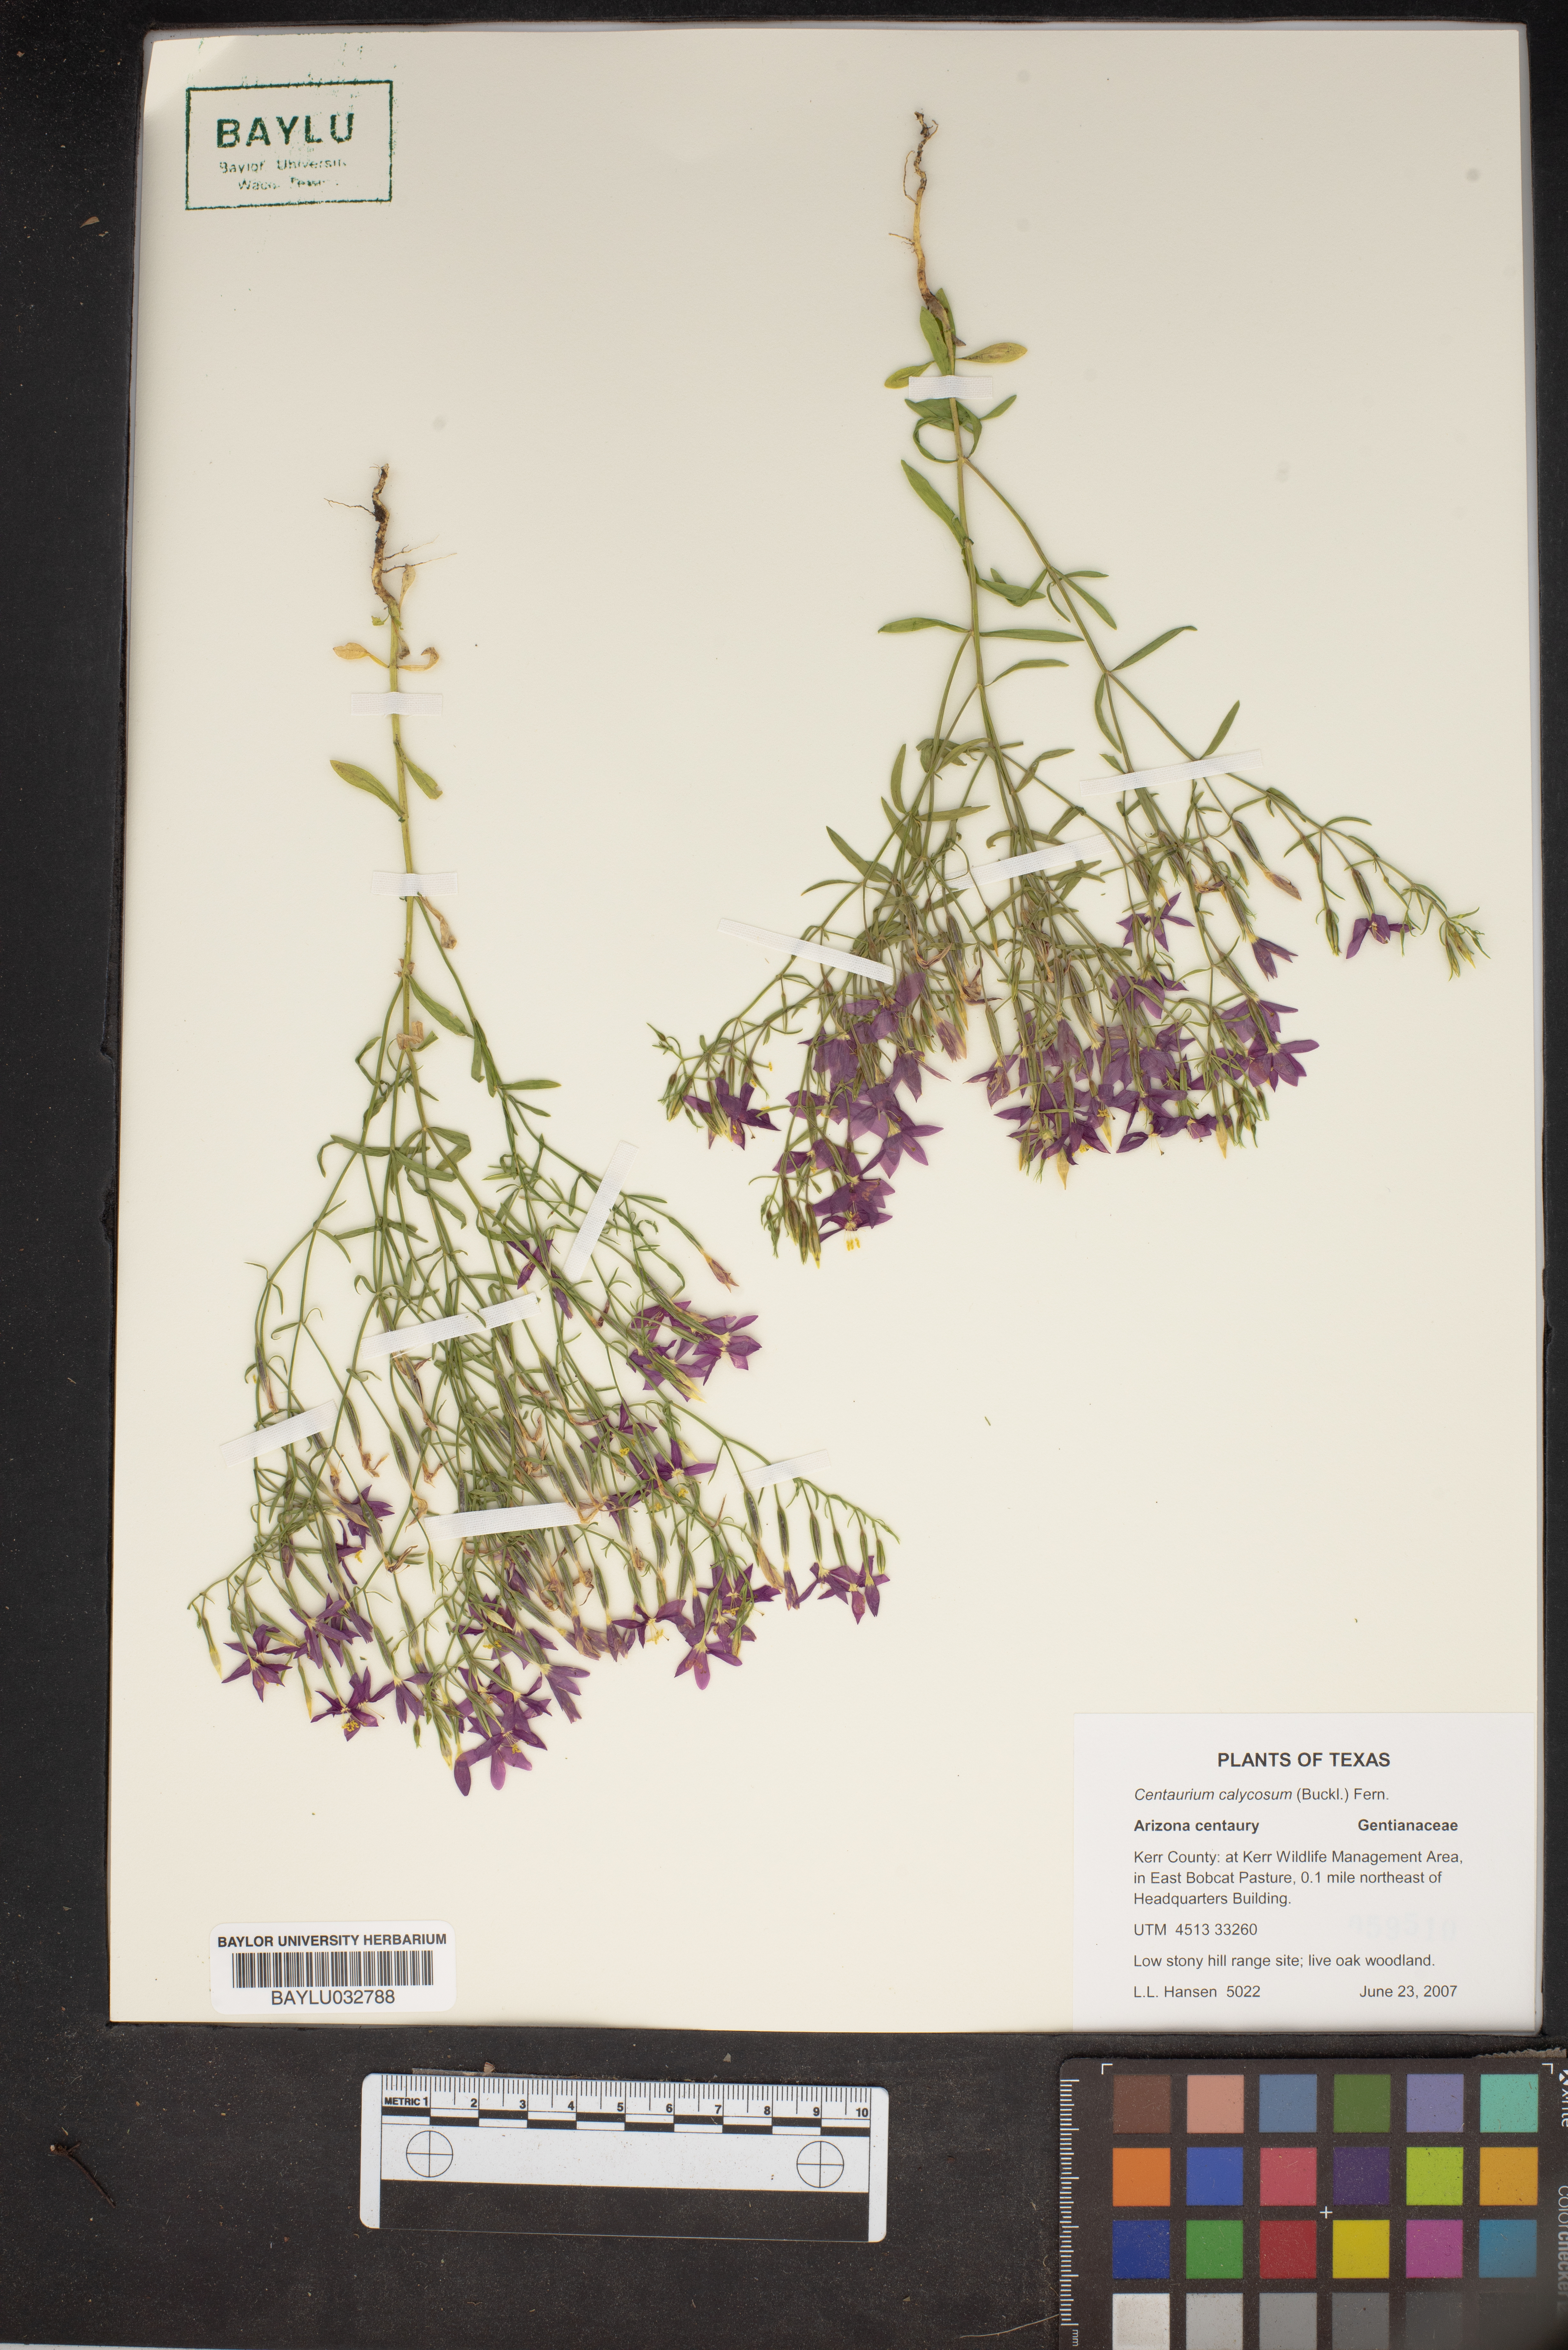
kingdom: Plantae
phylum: Tracheophyta
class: Magnoliopsida
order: Gentianales
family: Gentianaceae
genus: Zeltnera
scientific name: Zeltnera calycosa
